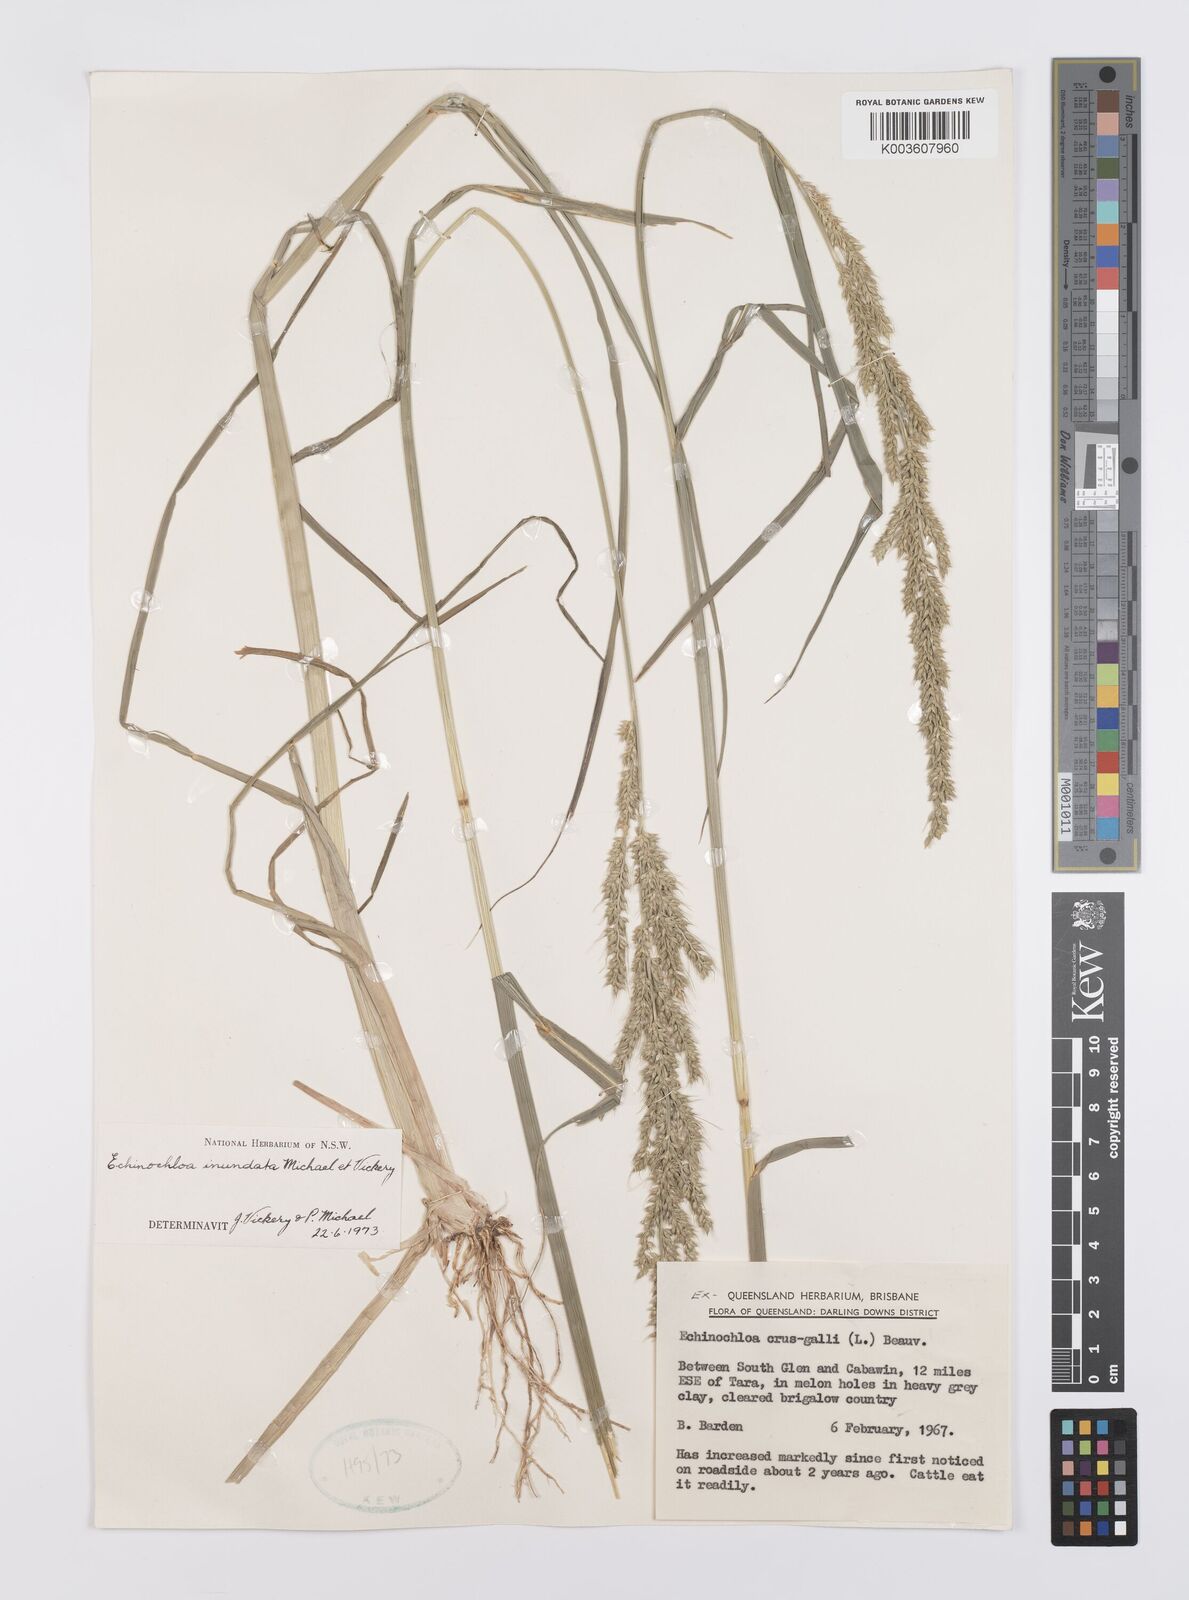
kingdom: Plantae
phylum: Tracheophyta
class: Liliopsida
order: Poales
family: Poaceae
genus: Echinochloa
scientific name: Echinochloa crus-galli
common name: Cockspur
